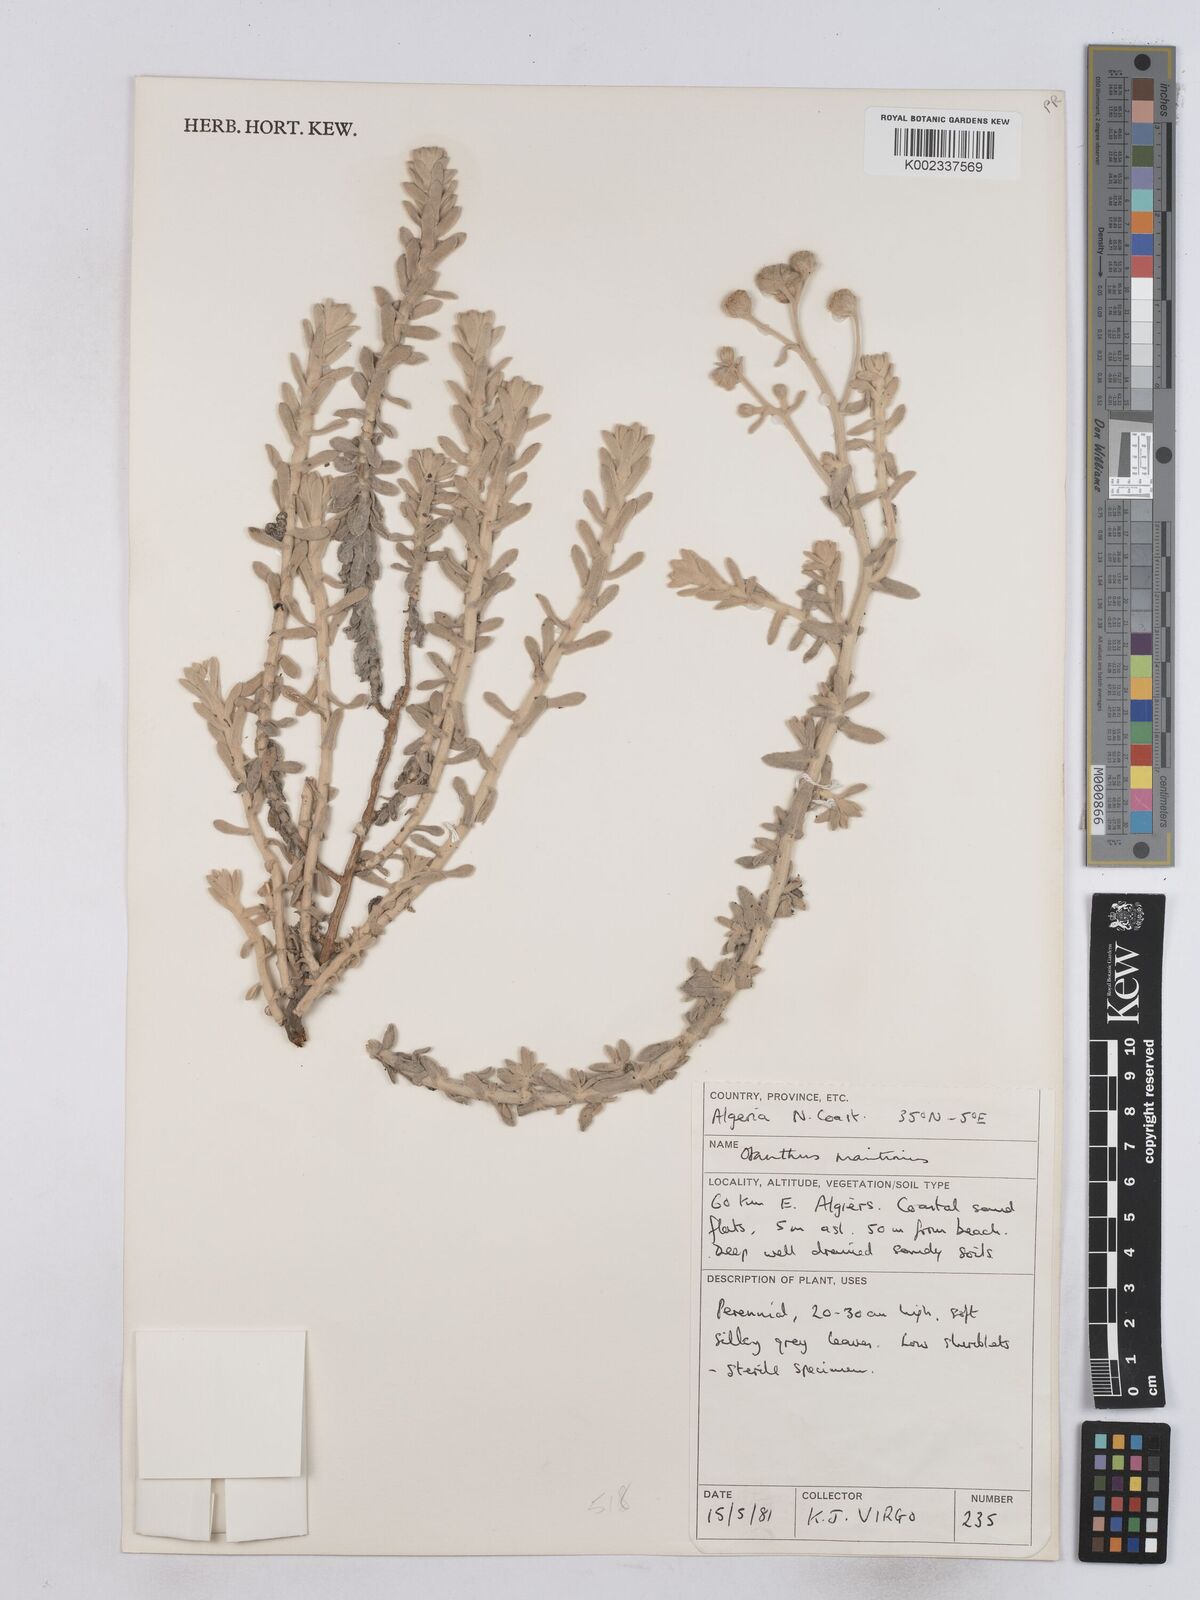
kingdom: Plantae
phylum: Tracheophyta
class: Magnoliopsida
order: Asterales
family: Asteraceae
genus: Achillea
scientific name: Achillea maritima
